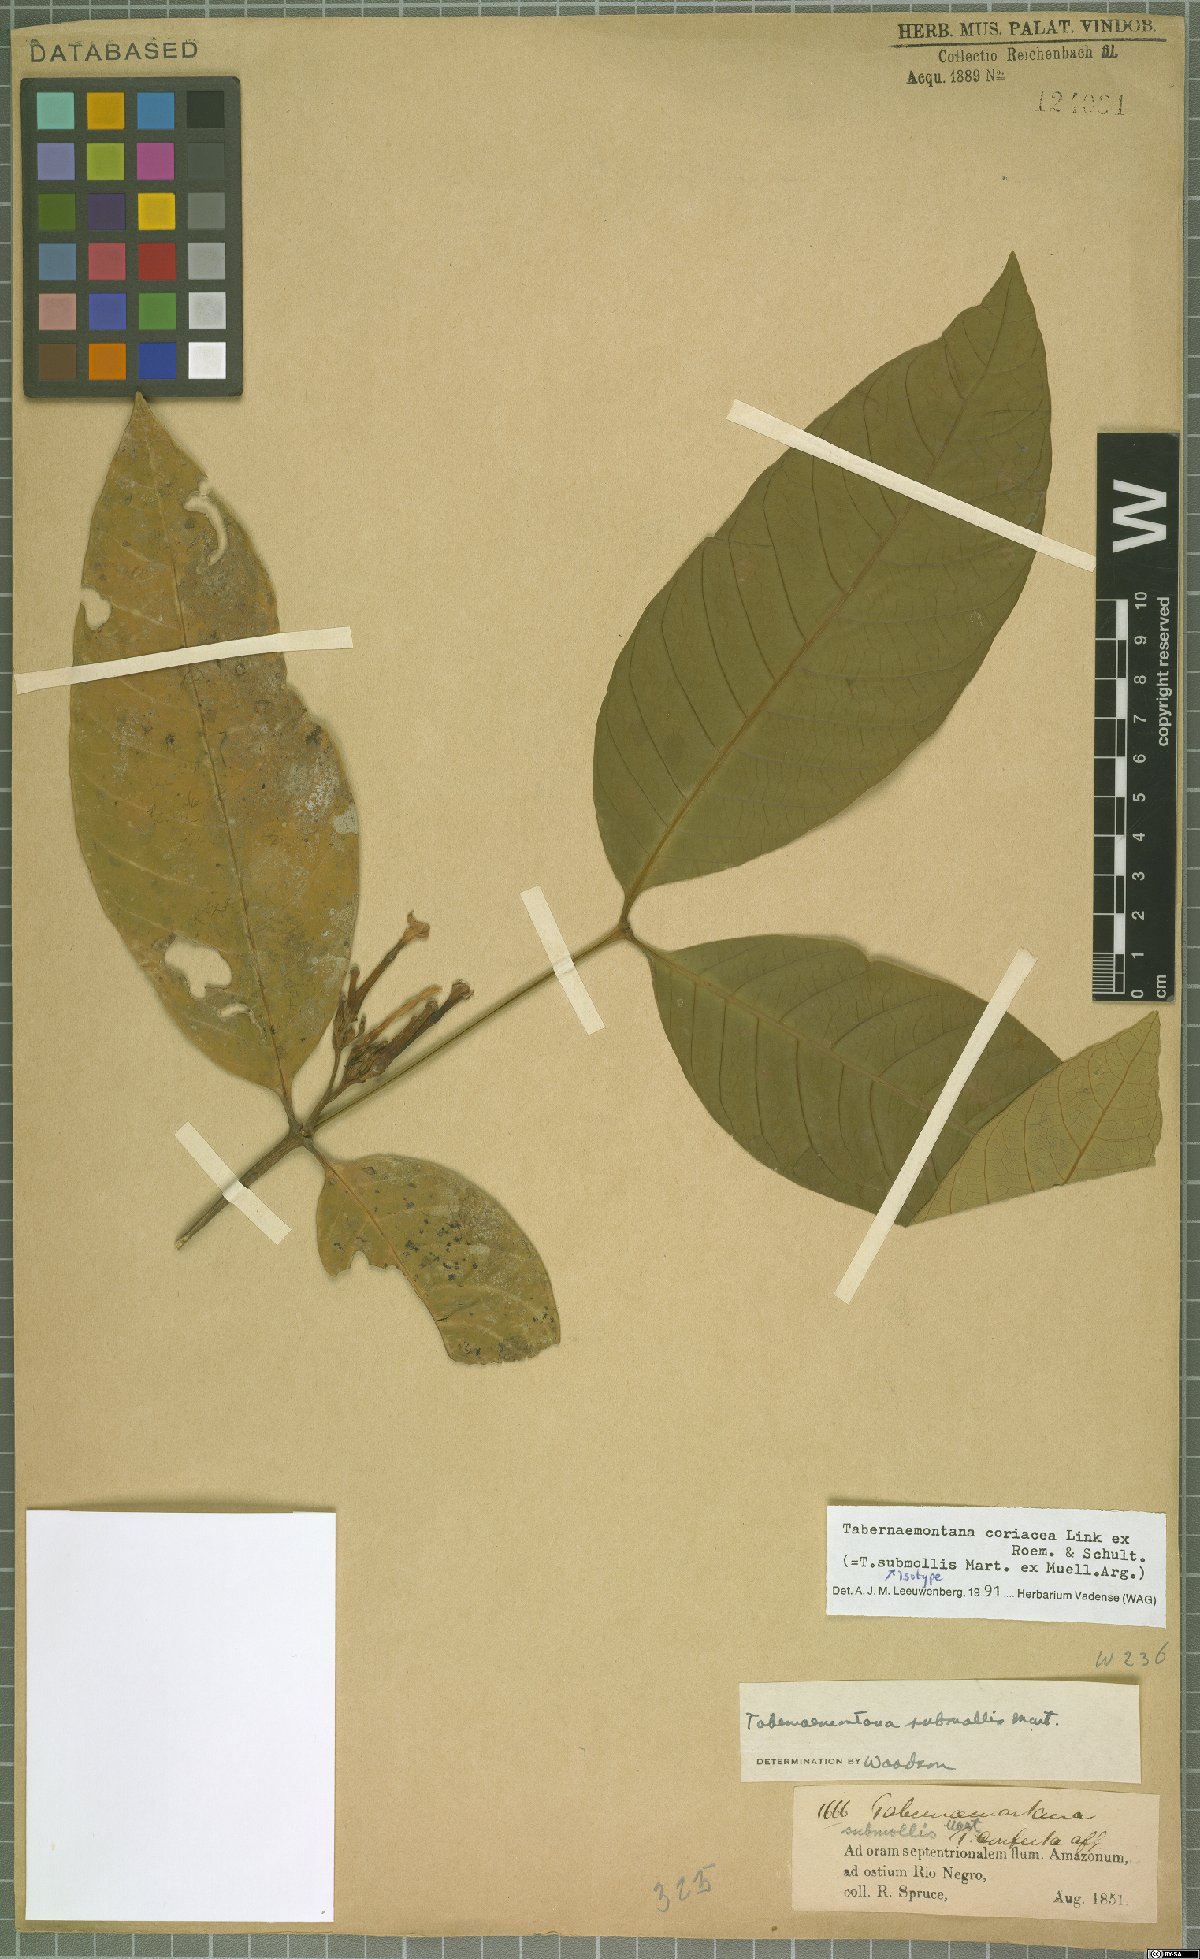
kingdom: Plantae
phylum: Tracheophyta
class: Magnoliopsida
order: Gentianales
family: Apocynaceae
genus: Tabernaemontana
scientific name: Tabernaemontana coriacea
